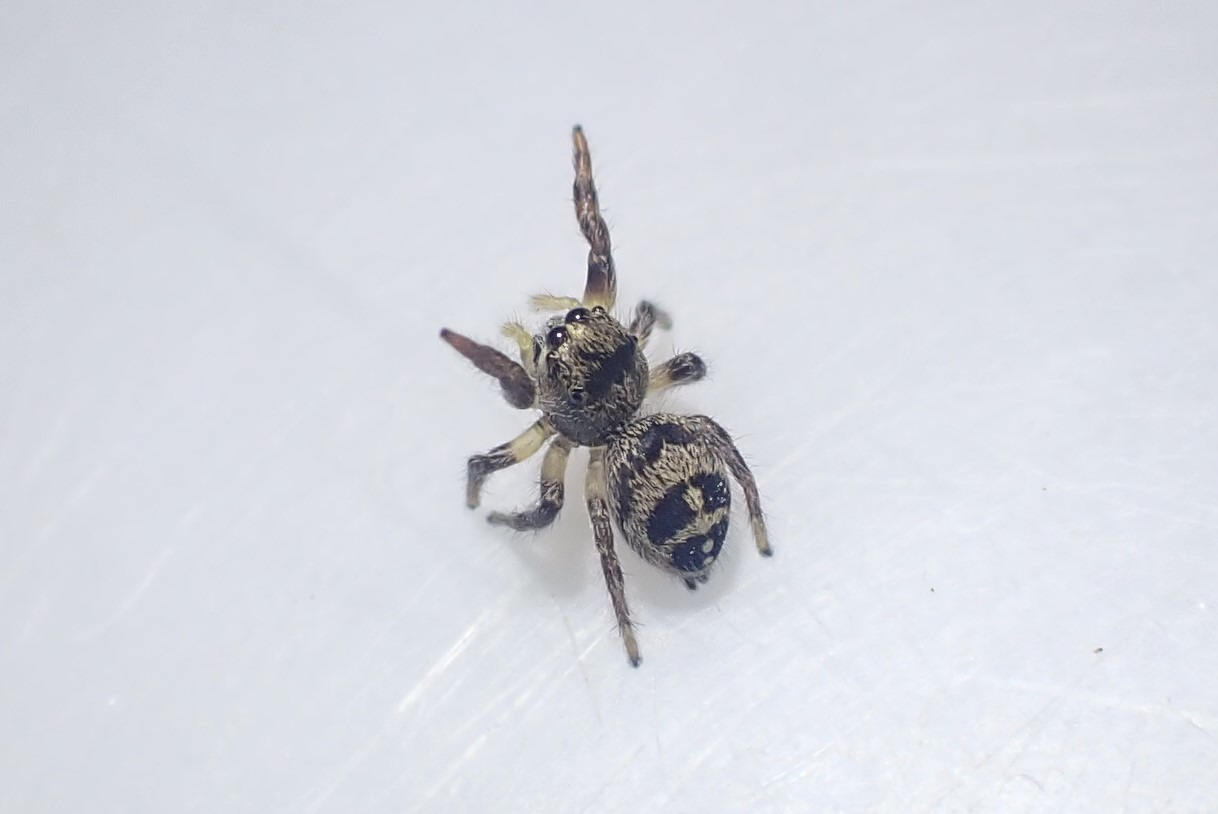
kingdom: Animalia
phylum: Arthropoda
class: Arachnida
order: Araneae
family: Salticidae
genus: Pellenes
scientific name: Pellenes tripunctatus
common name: Treplettet springedderkop
